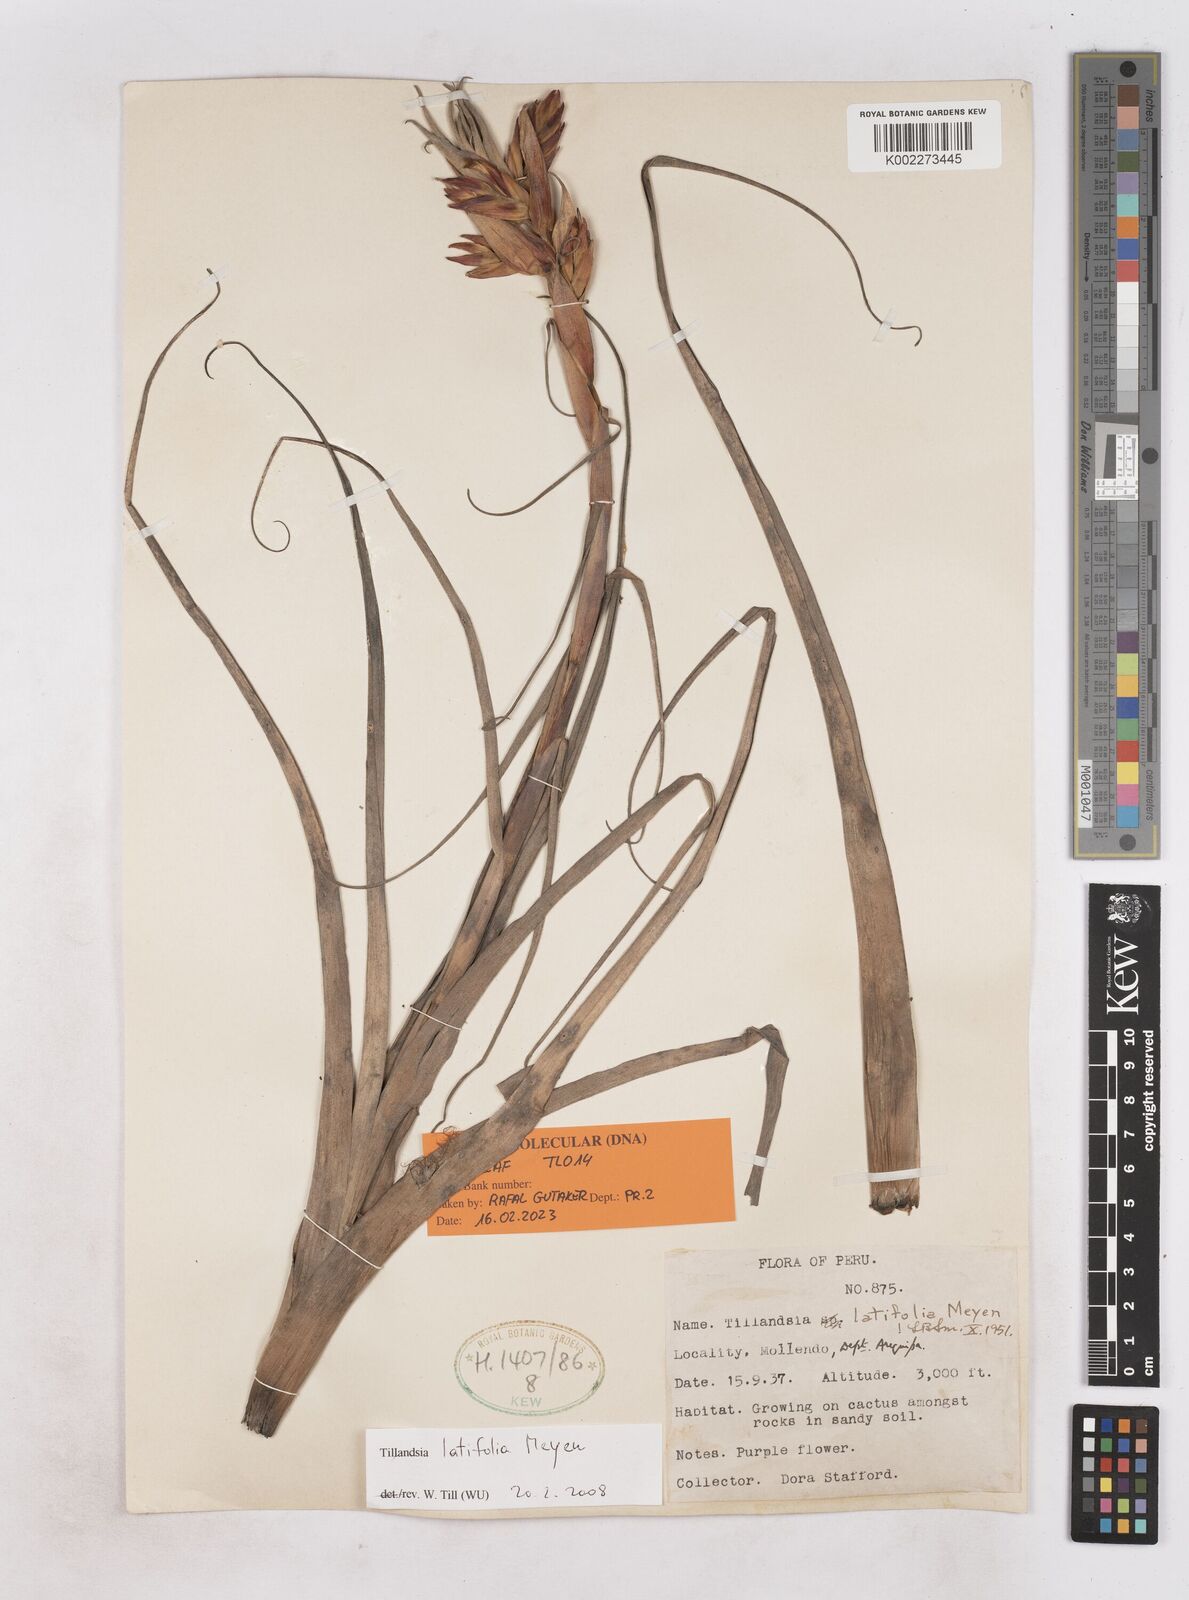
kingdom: Plantae
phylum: Tracheophyta
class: Liliopsida
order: Poales
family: Bromeliaceae
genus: Tillandsia
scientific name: Tillandsia latifolia
